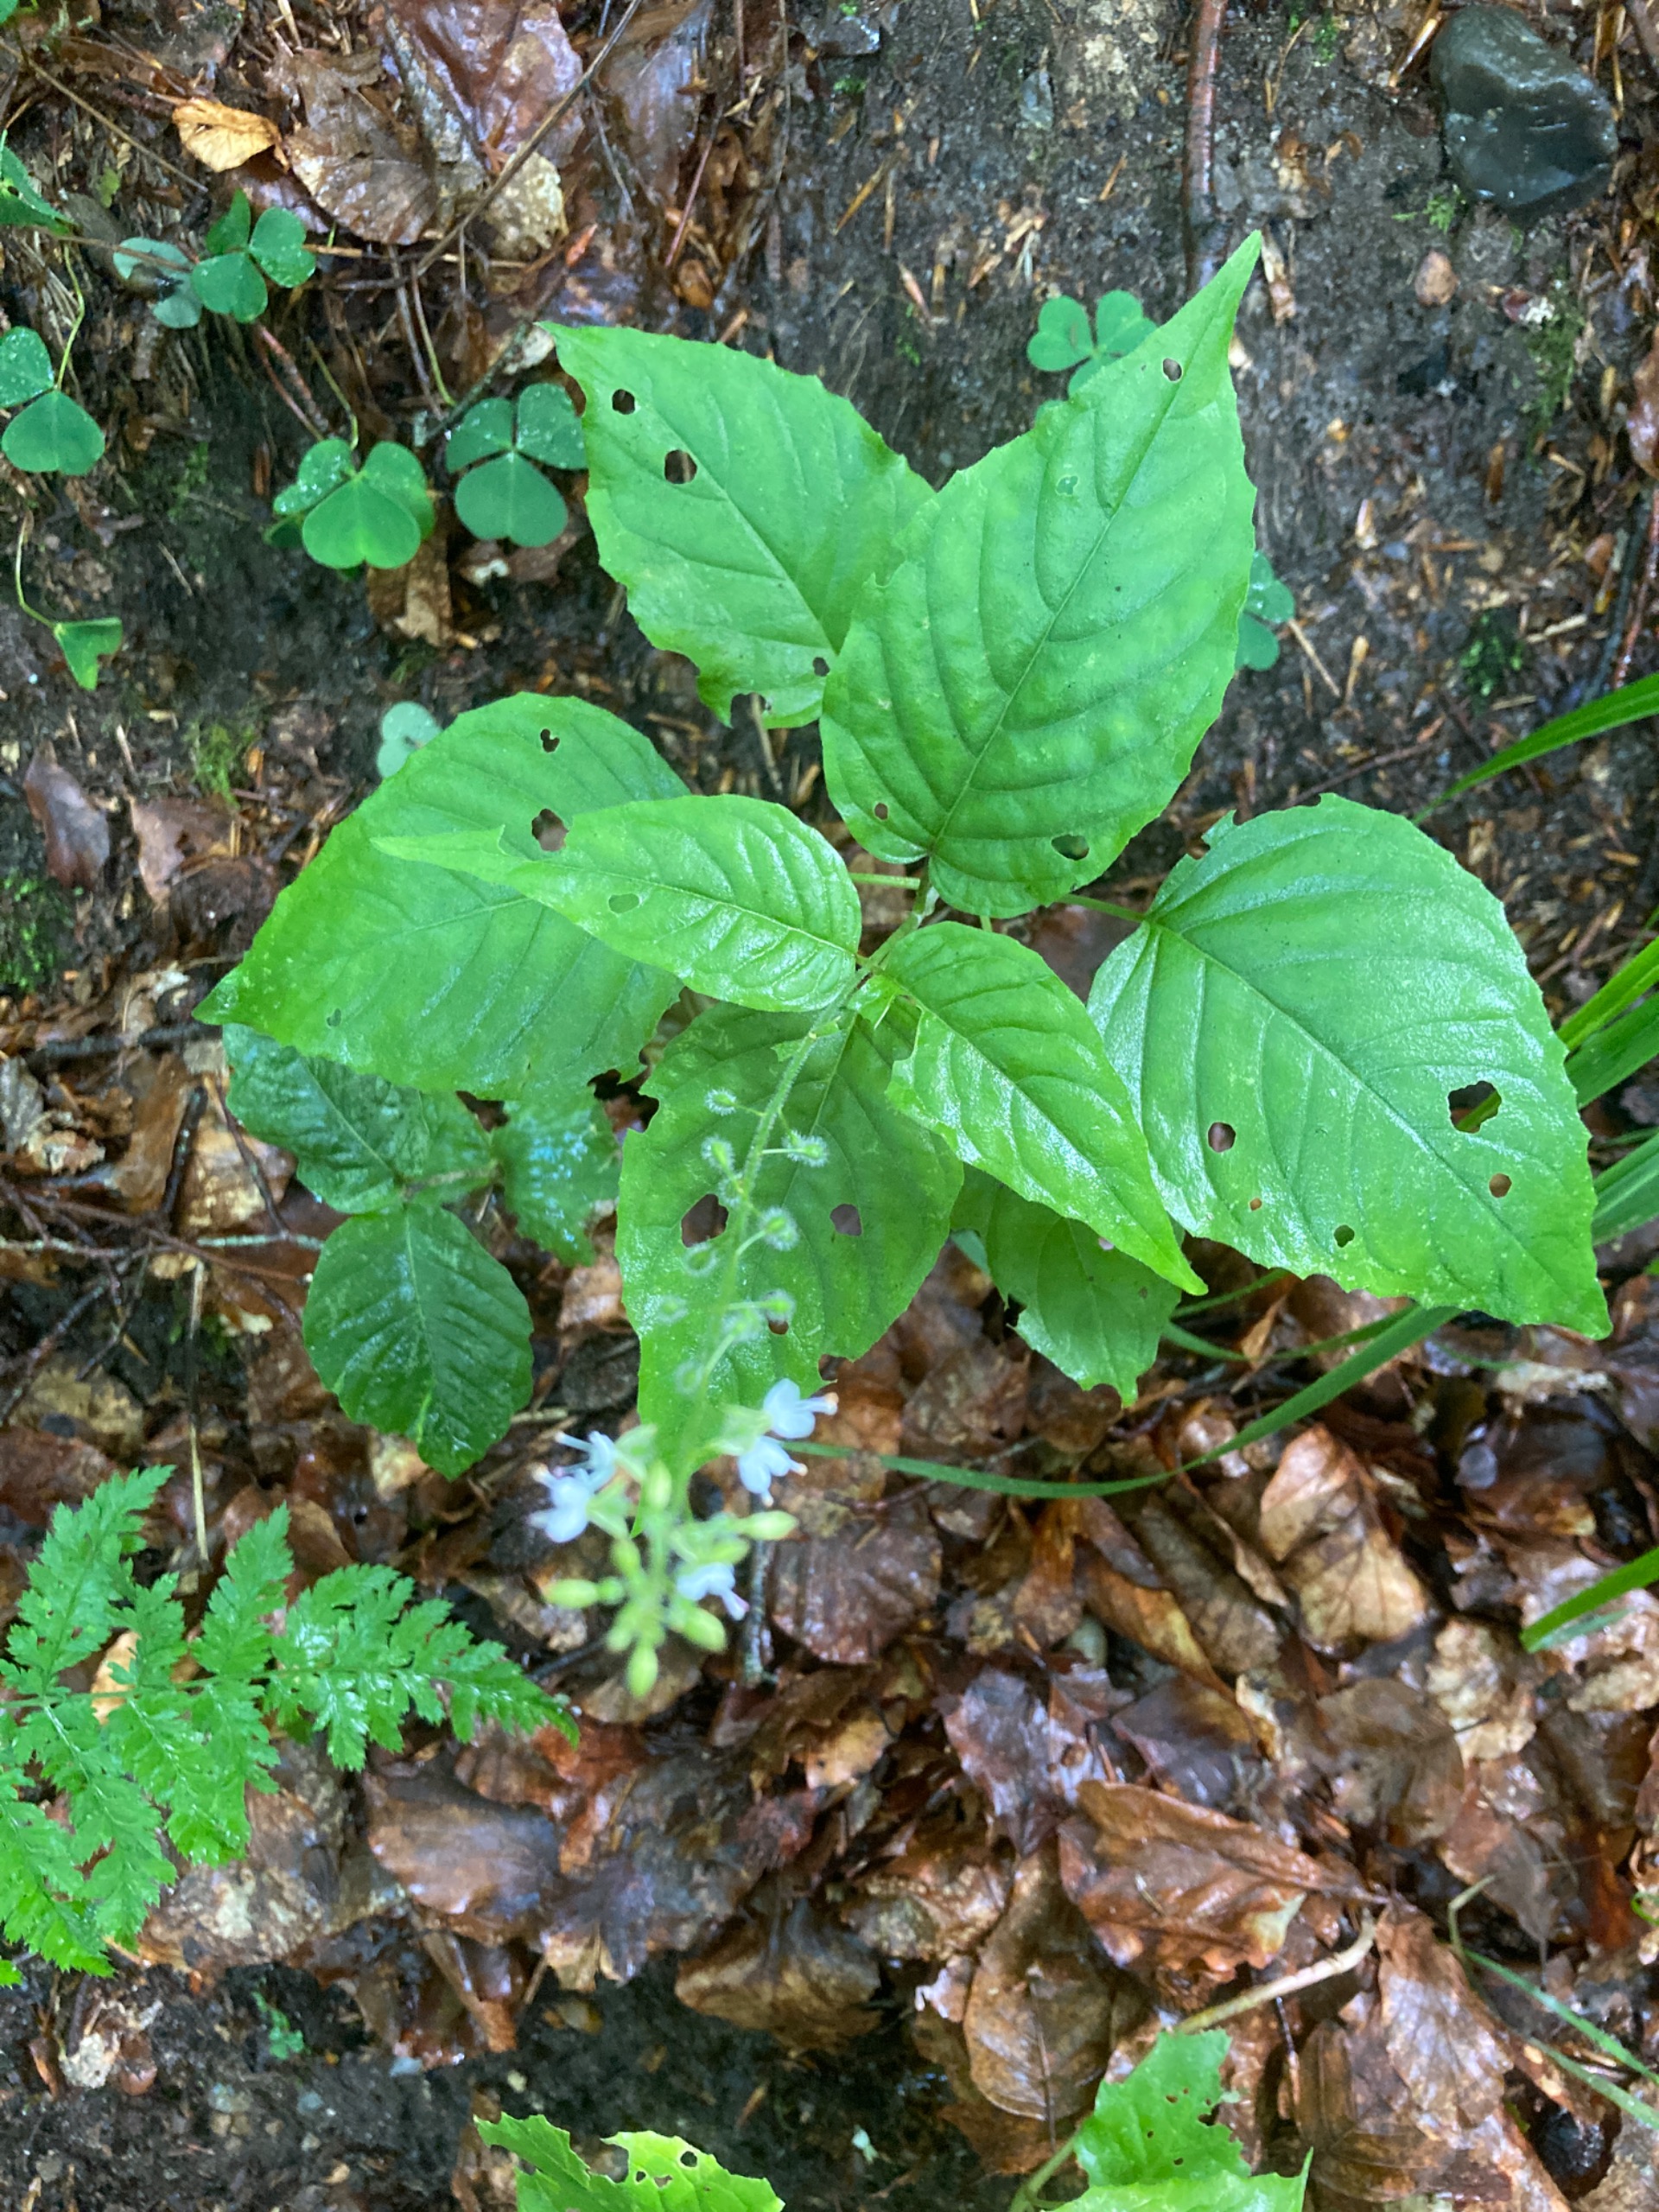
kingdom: Plantae
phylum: Tracheophyta
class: Magnoliopsida
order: Myrtales
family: Onagraceae
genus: Circaea
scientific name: Circaea lutetiana
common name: Dunet steffensurt
